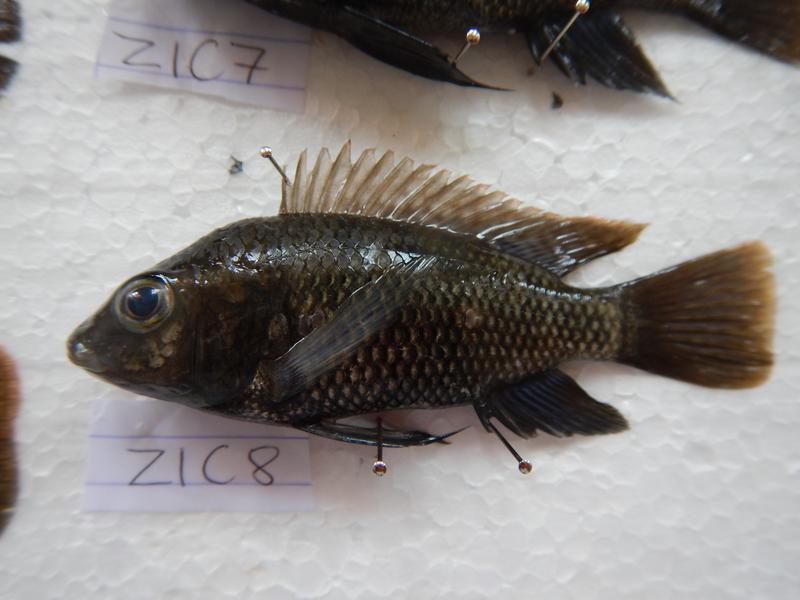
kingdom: Animalia
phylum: Chordata
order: Perciformes
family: Cichlidae
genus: Oreochromis
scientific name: Oreochromis urolepis
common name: Wami tilapia
